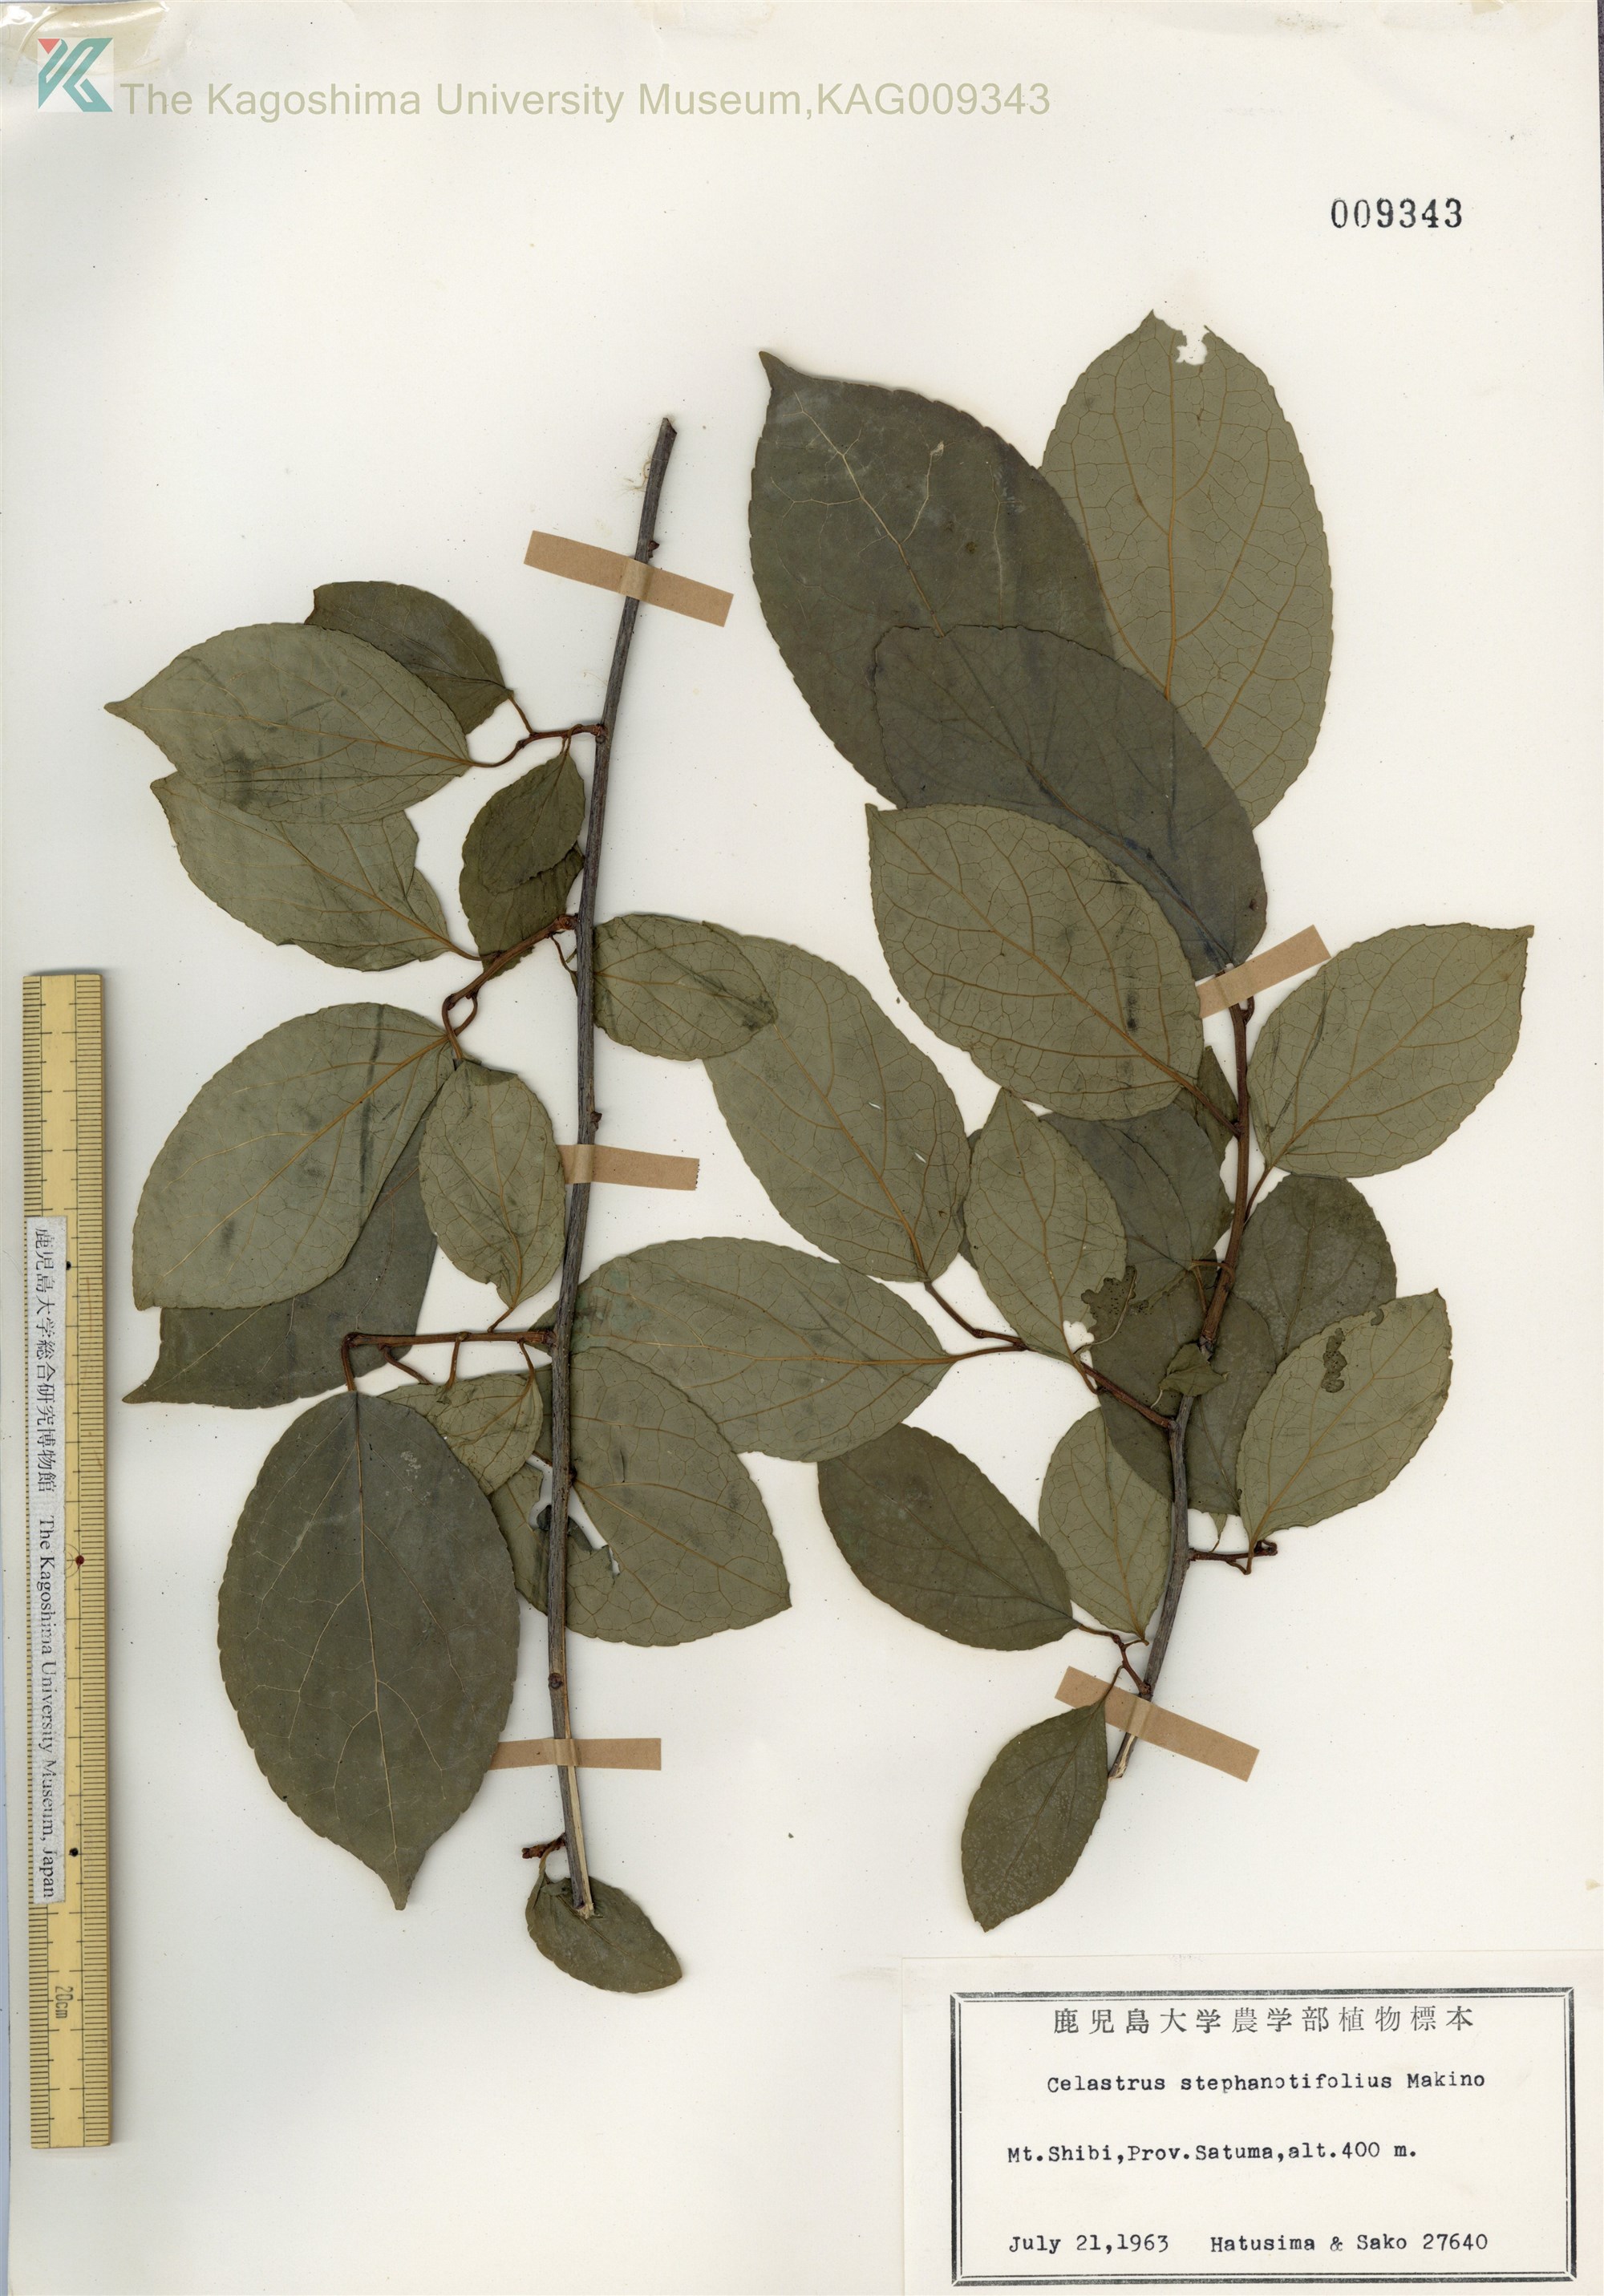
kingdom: Plantae
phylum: Tracheophyta
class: Magnoliopsida
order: Celastrales
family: Celastraceae
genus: Celastrus
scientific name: Celastrus stephanotifolius
